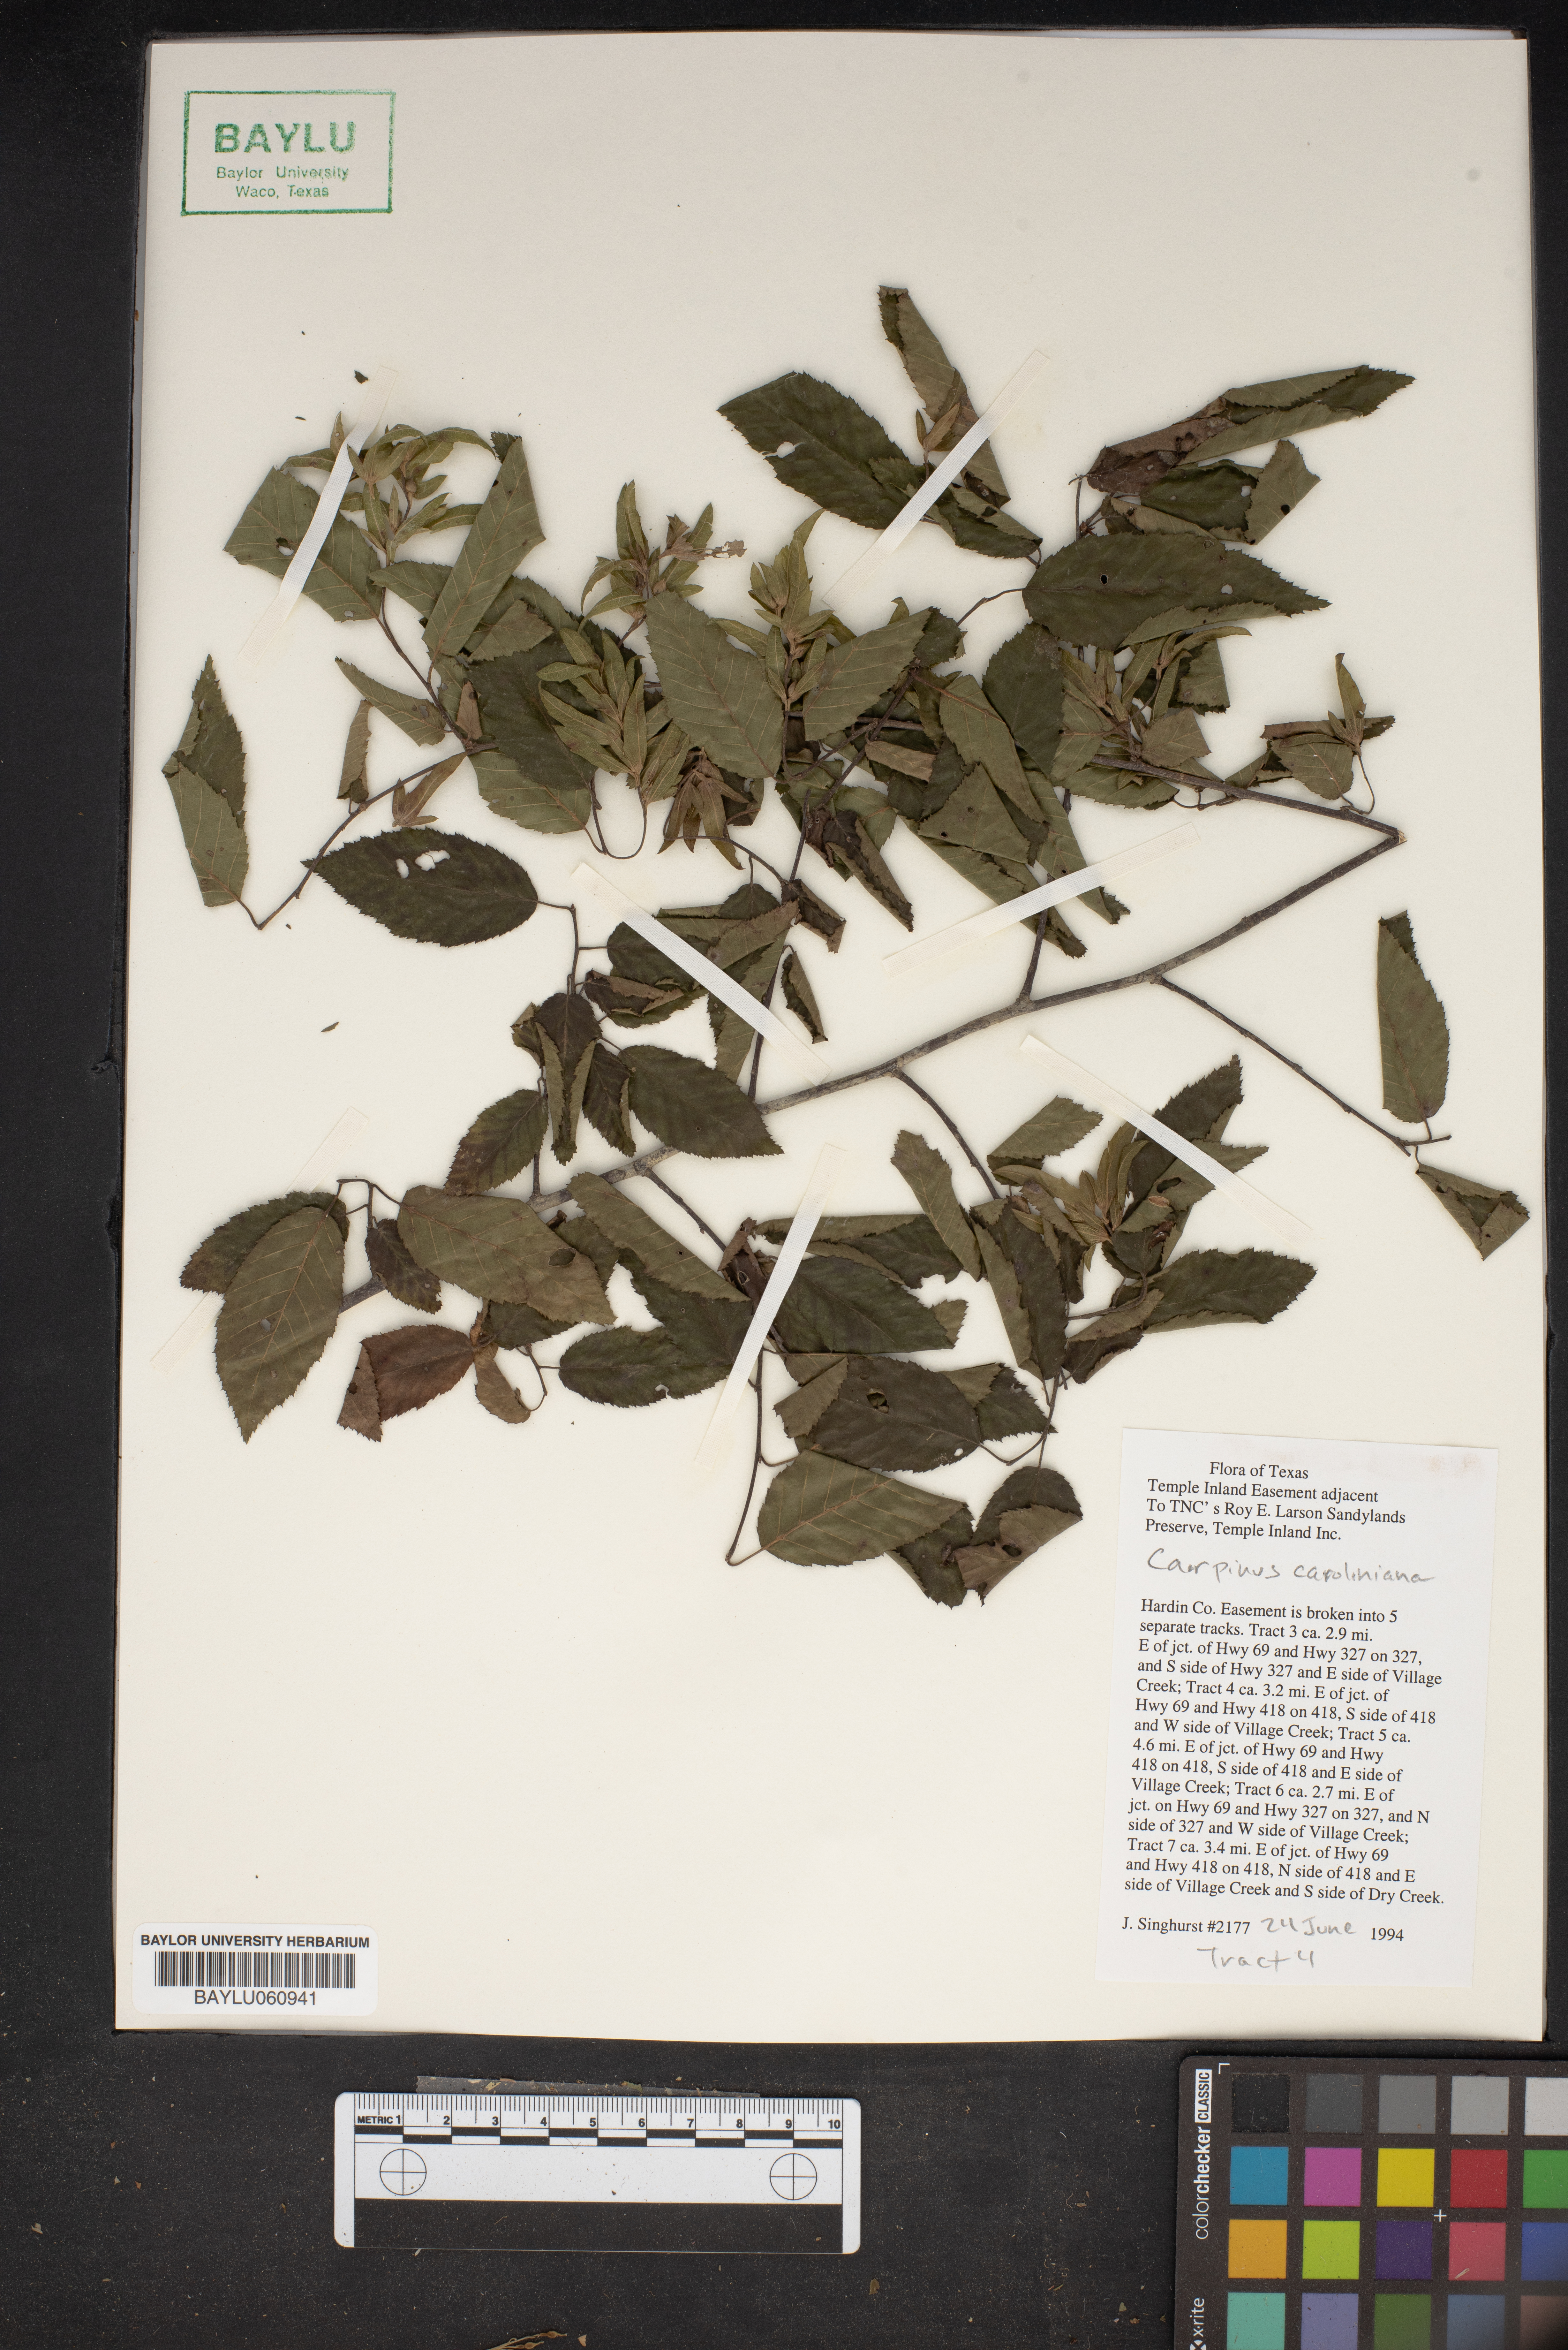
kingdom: Plantae
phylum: Tracheophyta
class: Magnoliopsida
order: Fagales
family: Betulaceae
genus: Carpinus
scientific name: Carpinus caroliniana
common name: American hornbeam
